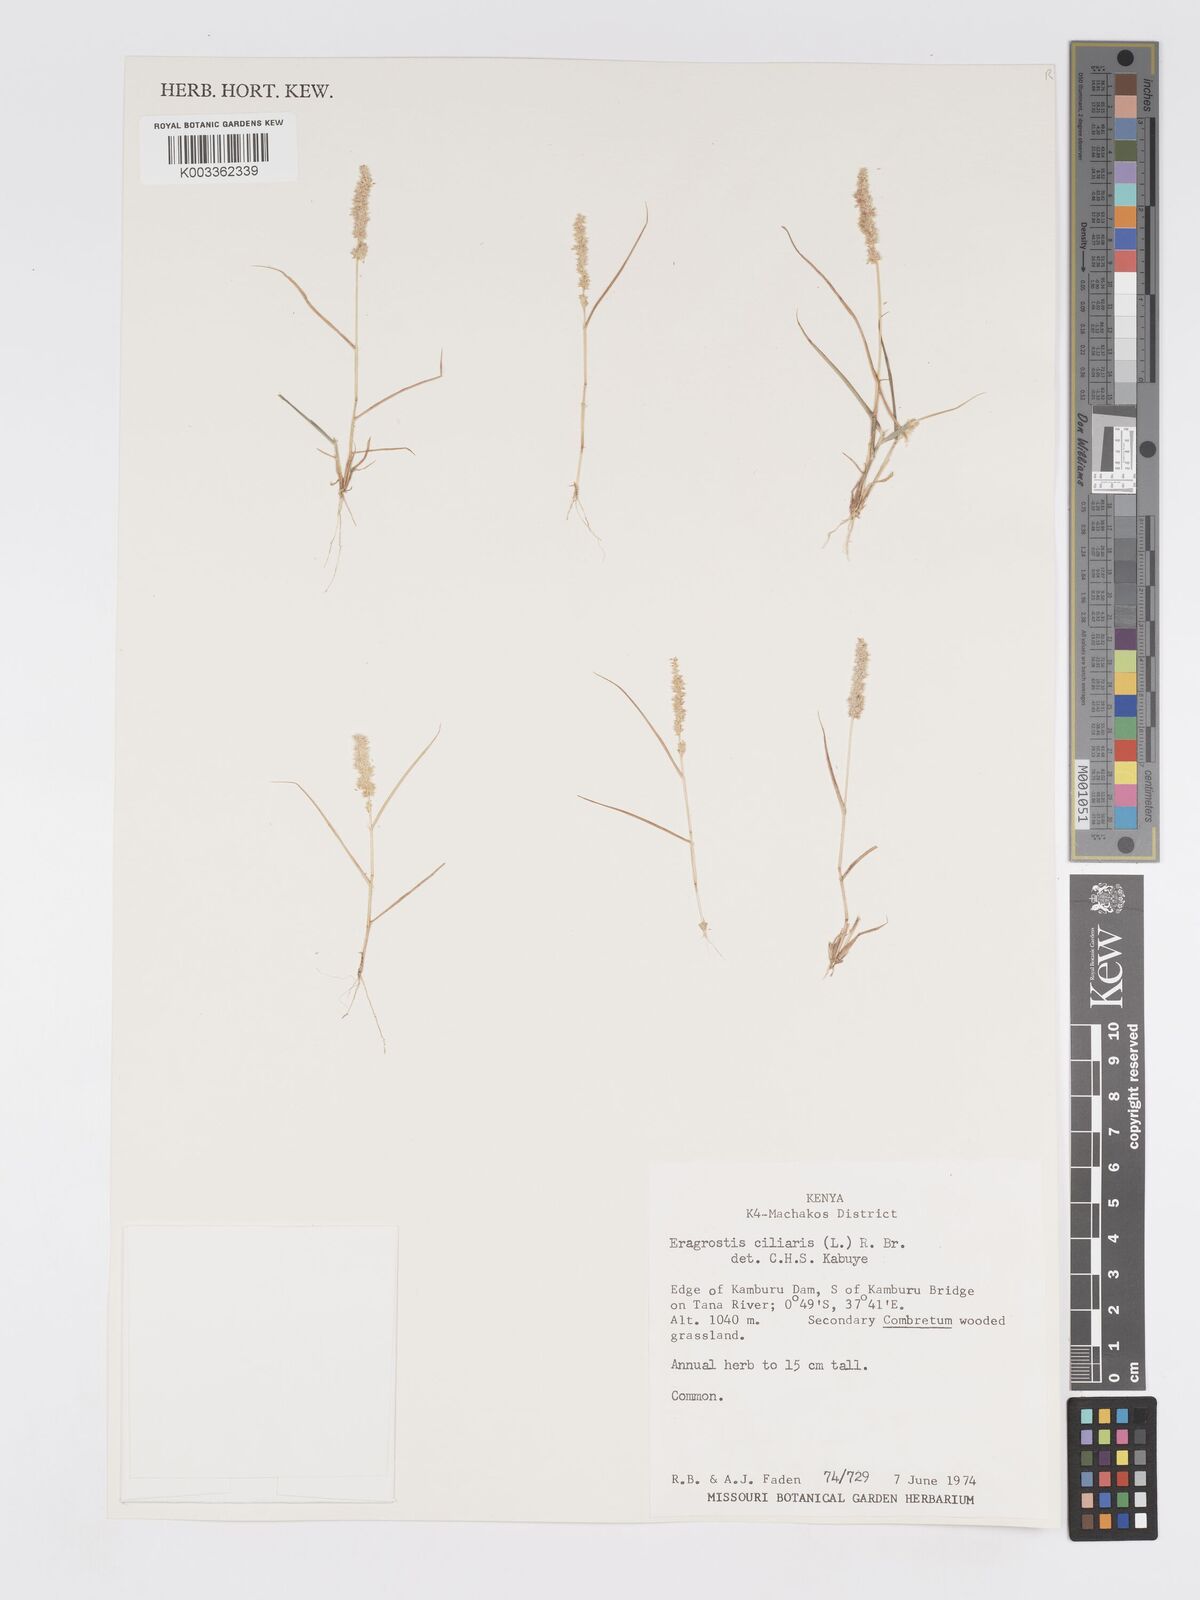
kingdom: Plantae
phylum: Tracheophyta
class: Liliopsida
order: Poales
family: Poaceae
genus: Eragrostis
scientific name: Eragrostis ciliaris
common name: Gophertail lovegrass
